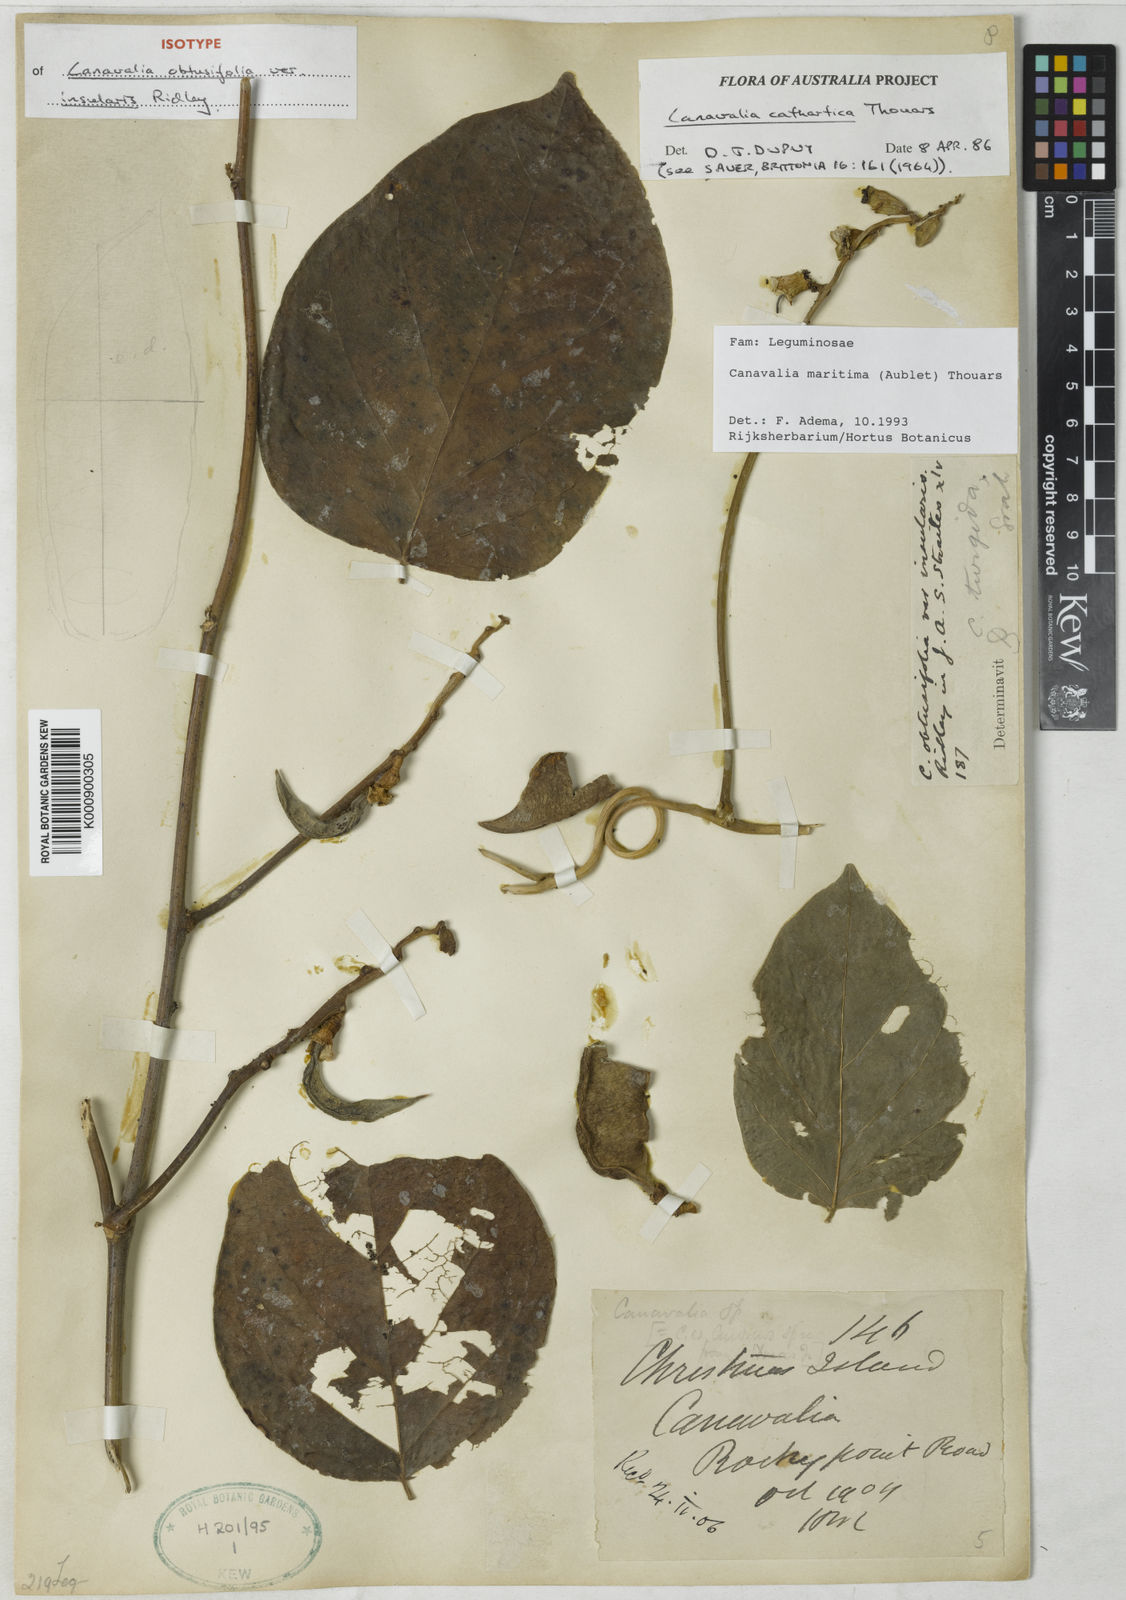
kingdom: Plantae
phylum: Tracheophyta
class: Magnoliopsida
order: Fabales
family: Fabaceae
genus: Canavalia
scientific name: Canavalia rosea
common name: Beach-bean
